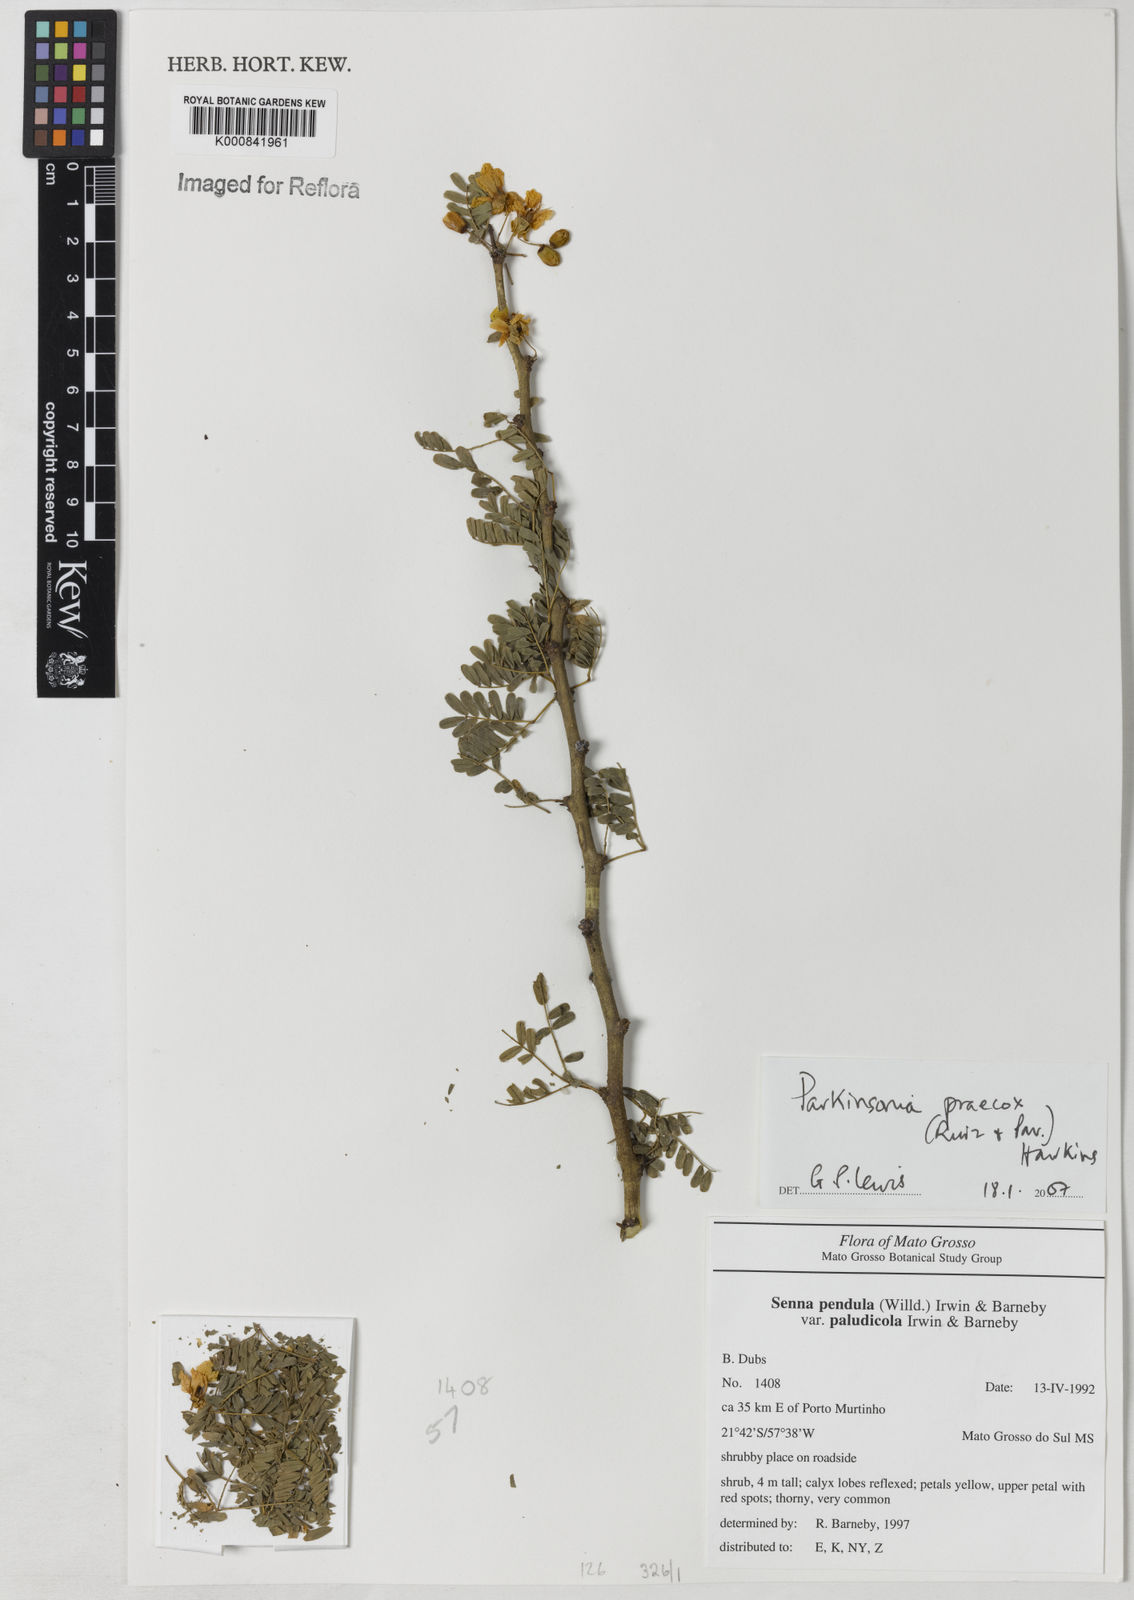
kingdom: Plantae
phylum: Tracheophyta
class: Magnoliopsida
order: Fabales
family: Fabaceae
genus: Parkinsonia
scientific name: Parkinsonia praecox
